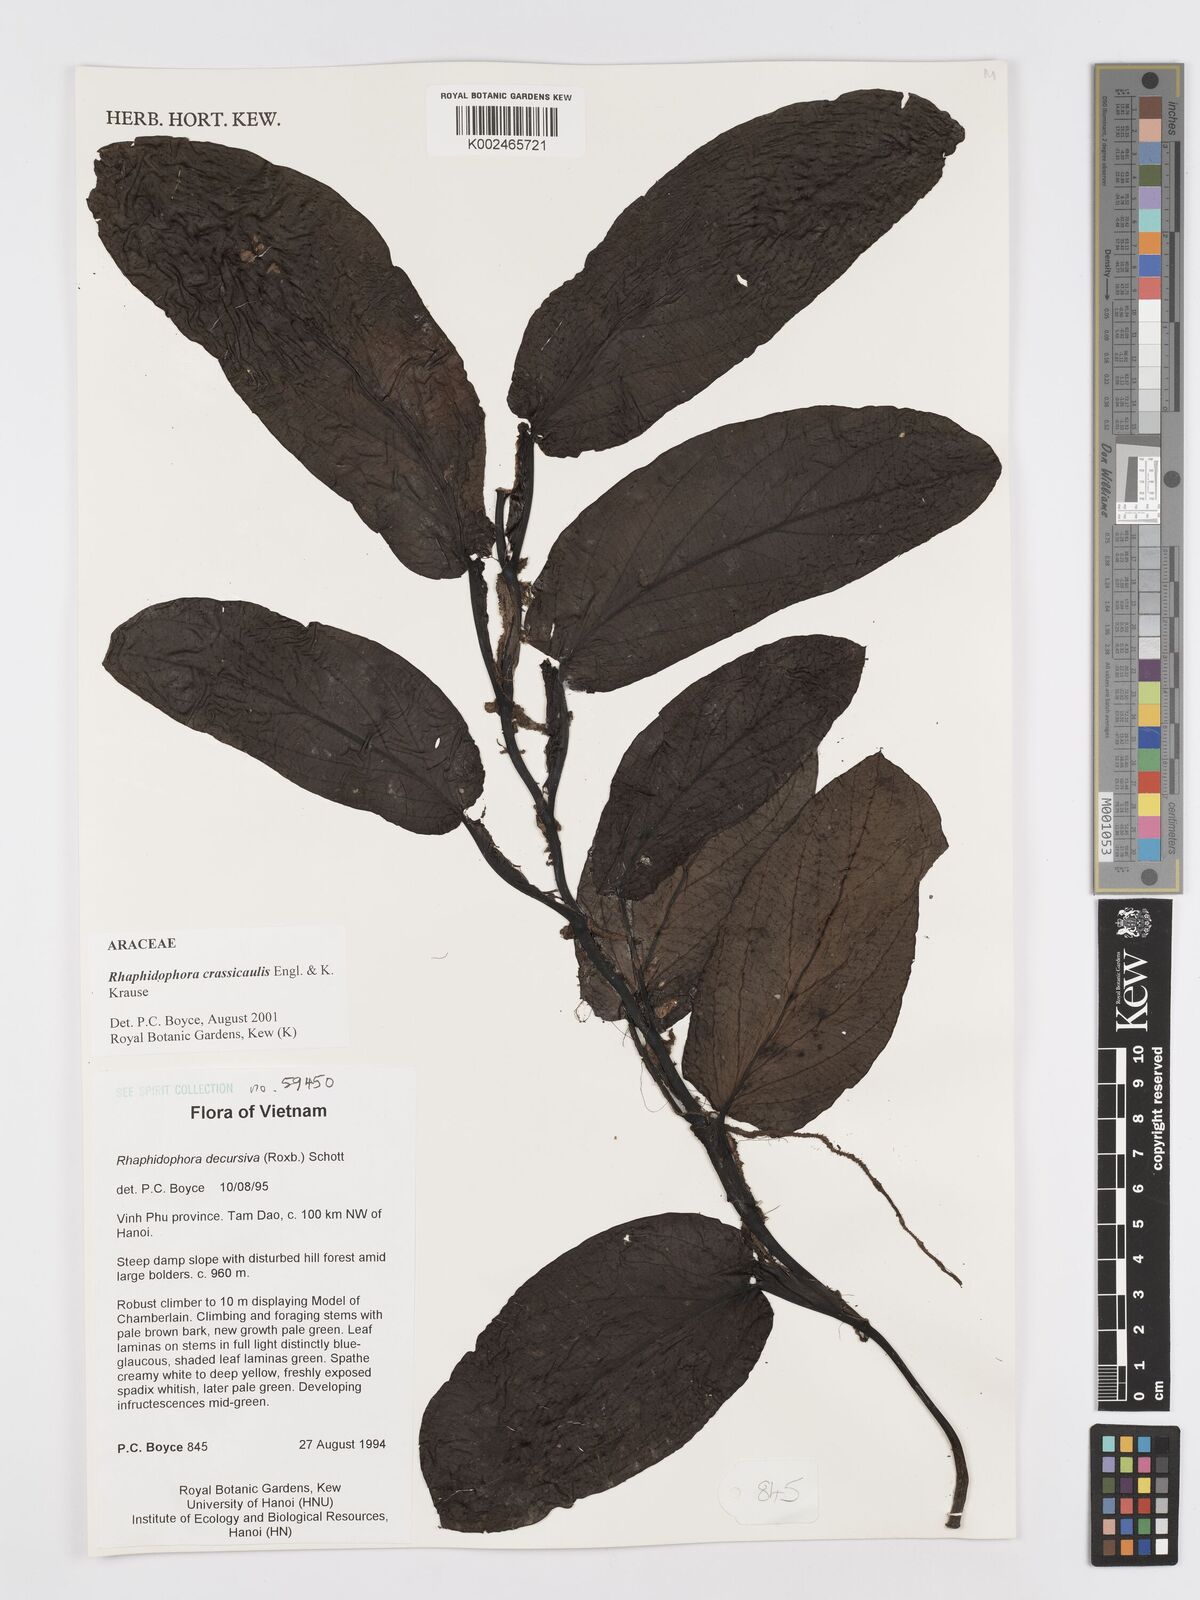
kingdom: Plantae
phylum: Tracheophyta
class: Liliopsida
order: Alismatales
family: Araceae
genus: Rhaphidophora
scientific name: Rhaphidophora crassicaulis
